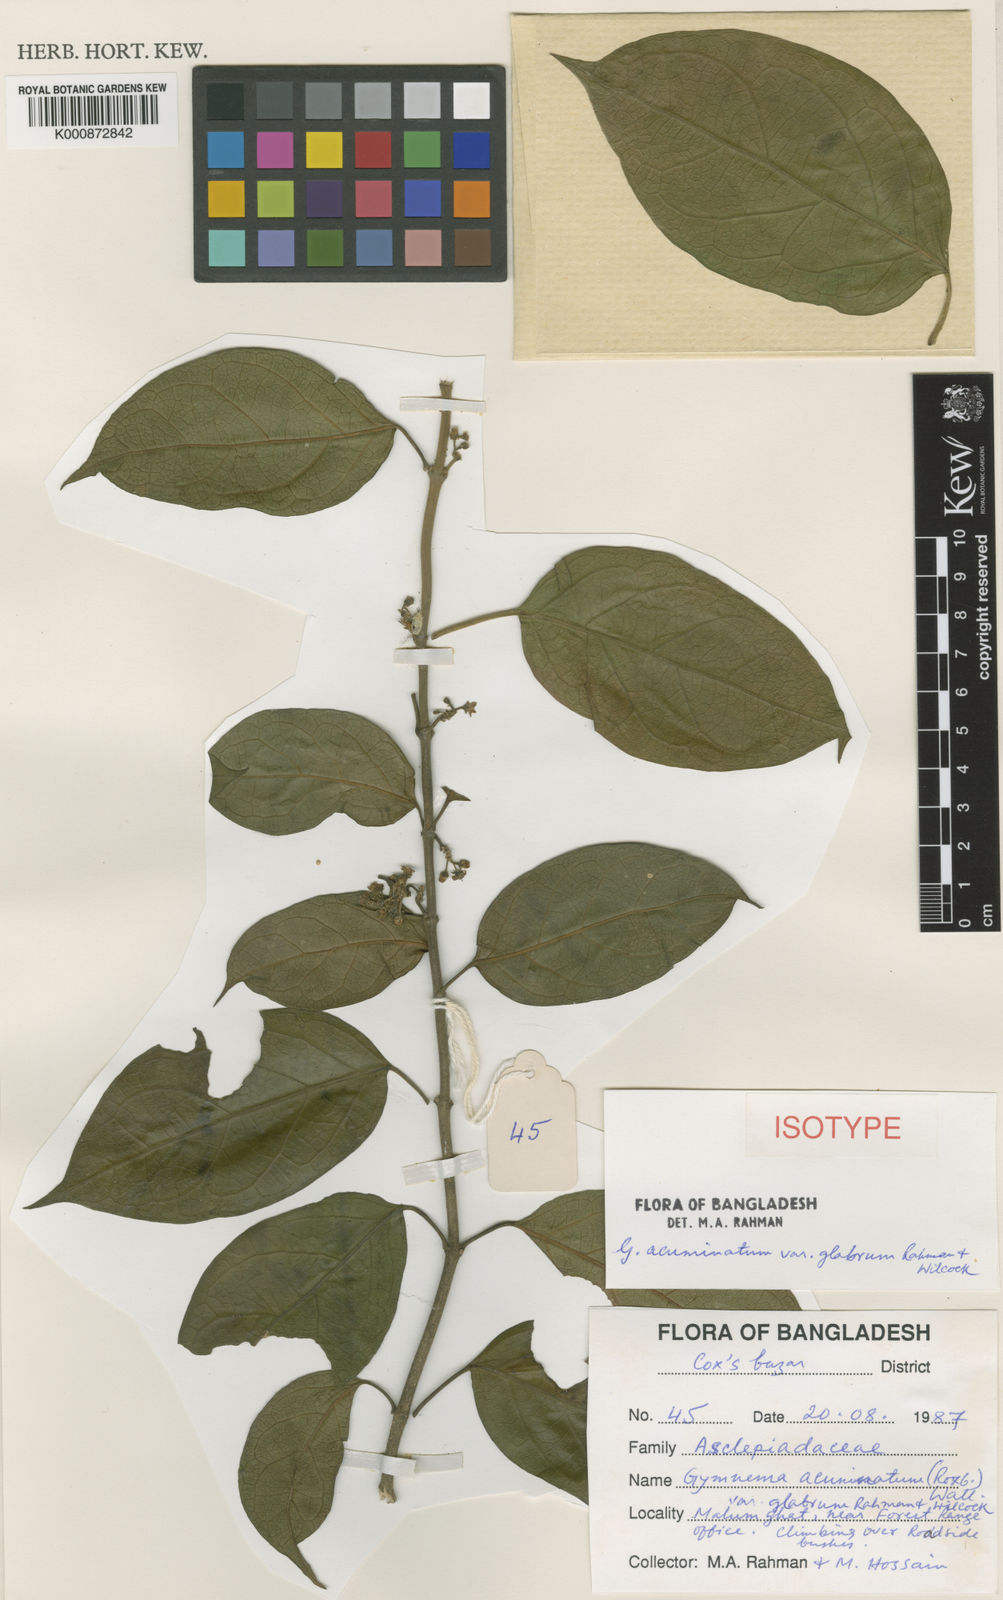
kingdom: Plantae
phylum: Tracheophyta
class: Magnoliopsida
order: Gentianales
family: Apocynaceae
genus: Gymnema
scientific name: Gymnema acuminatum
